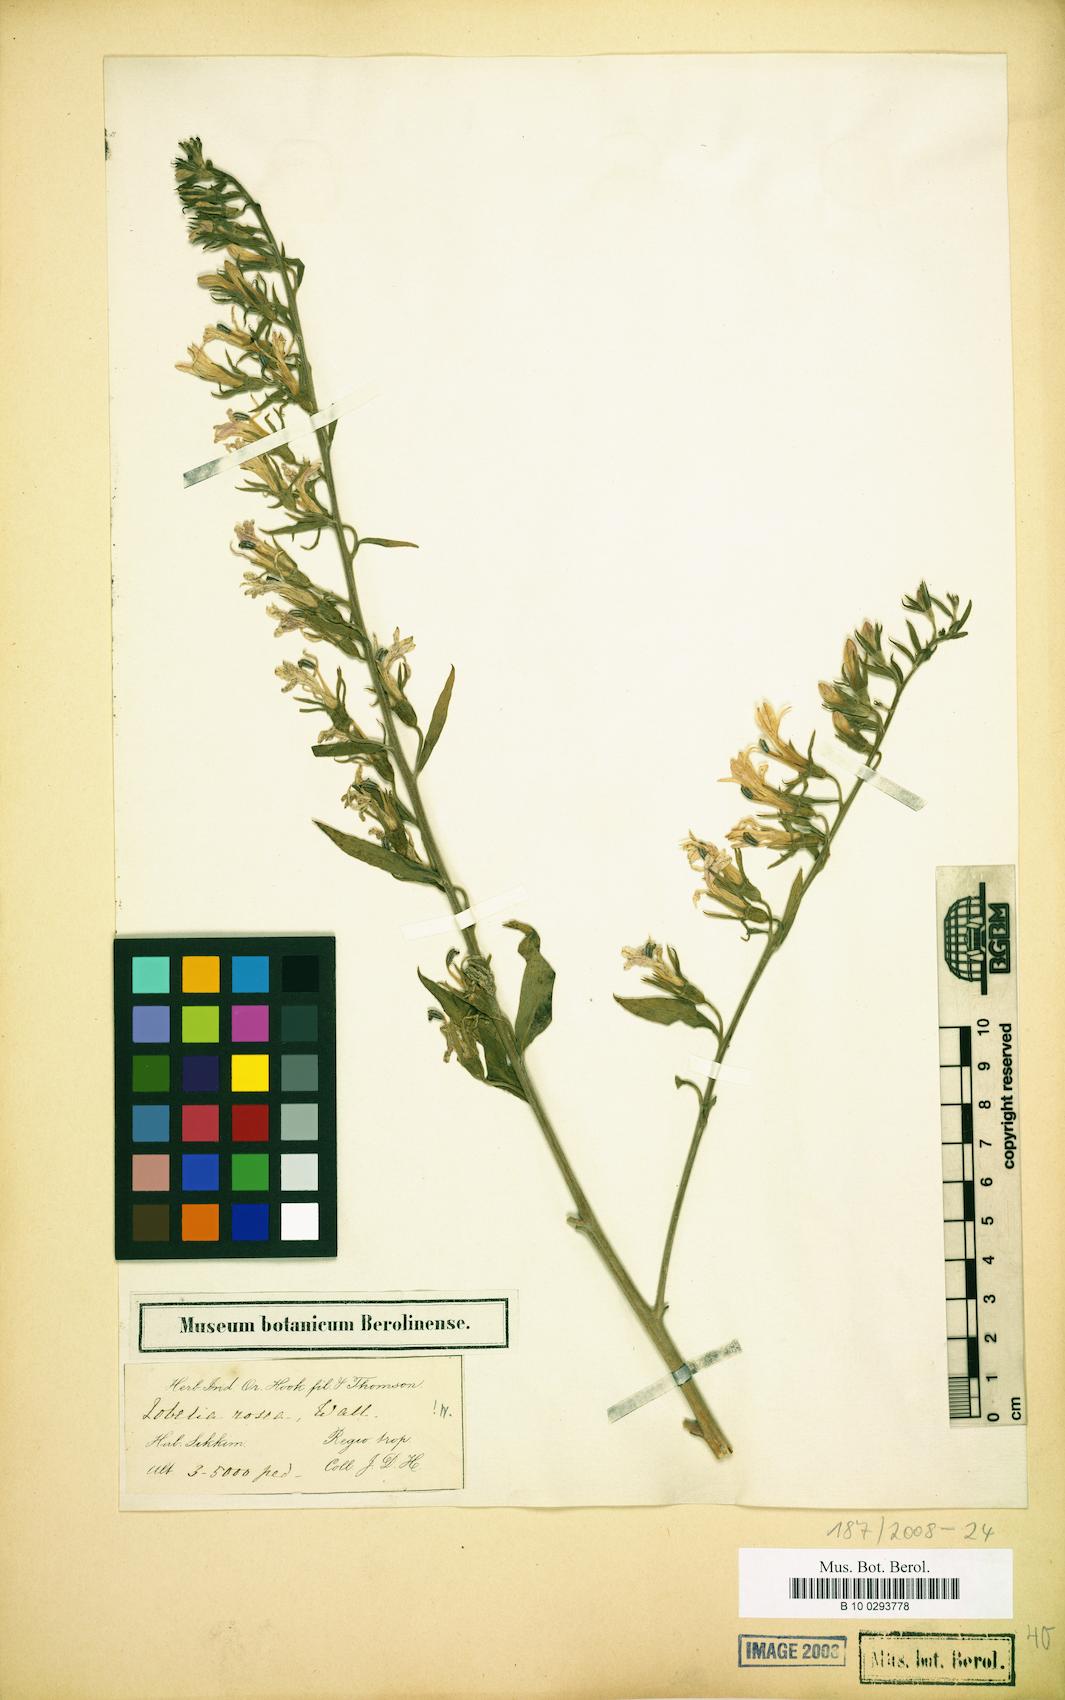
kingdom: Plantae
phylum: Tracheophyta
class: Magnoliopsida
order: Asterales
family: Campanulaceae
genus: Lobelia
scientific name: Lobelia rosea
